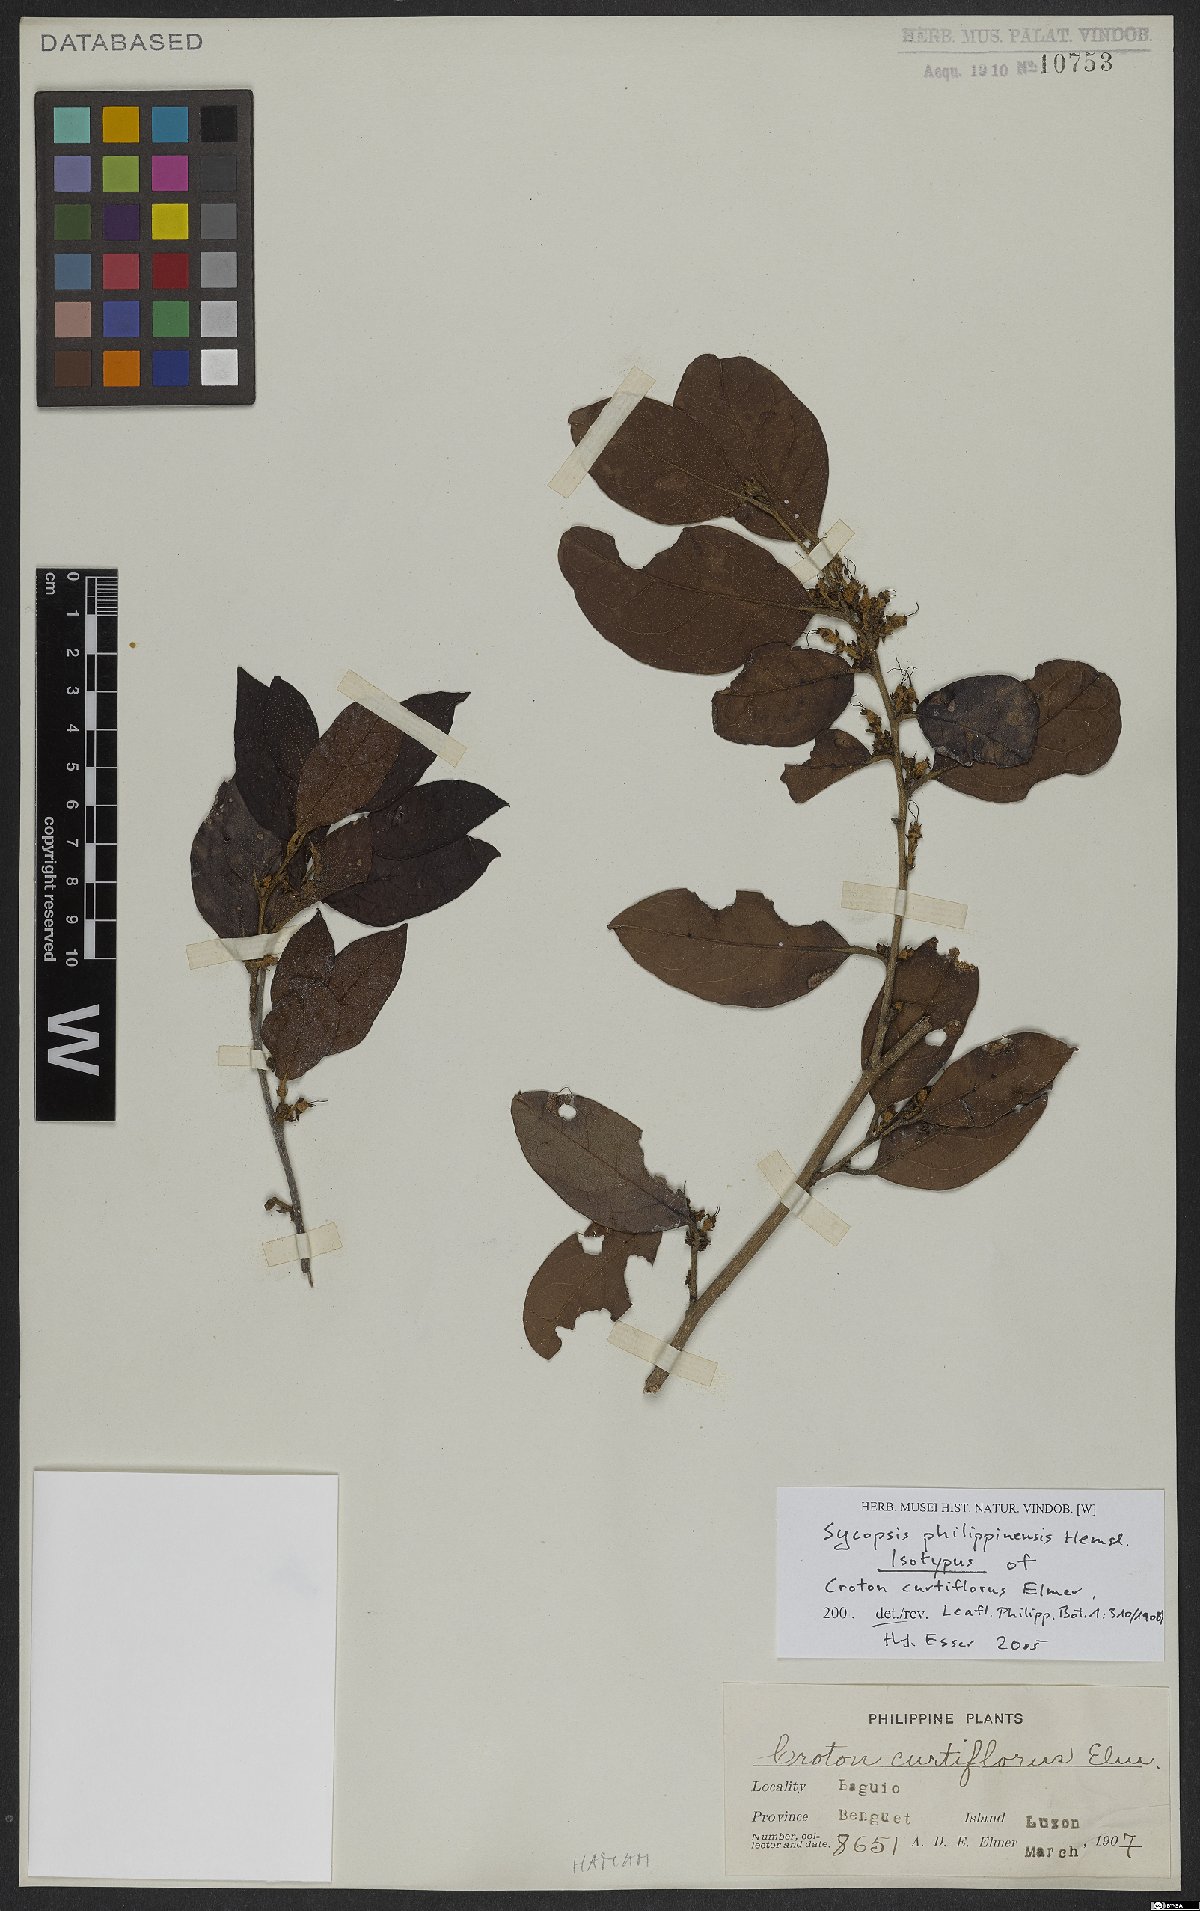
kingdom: Plantae
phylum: Tracheophyta
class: Magnoliopsida
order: Saxifragales
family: Hamamelidaceae
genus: Distyliopsis
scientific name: Distyliopsis dunnii
